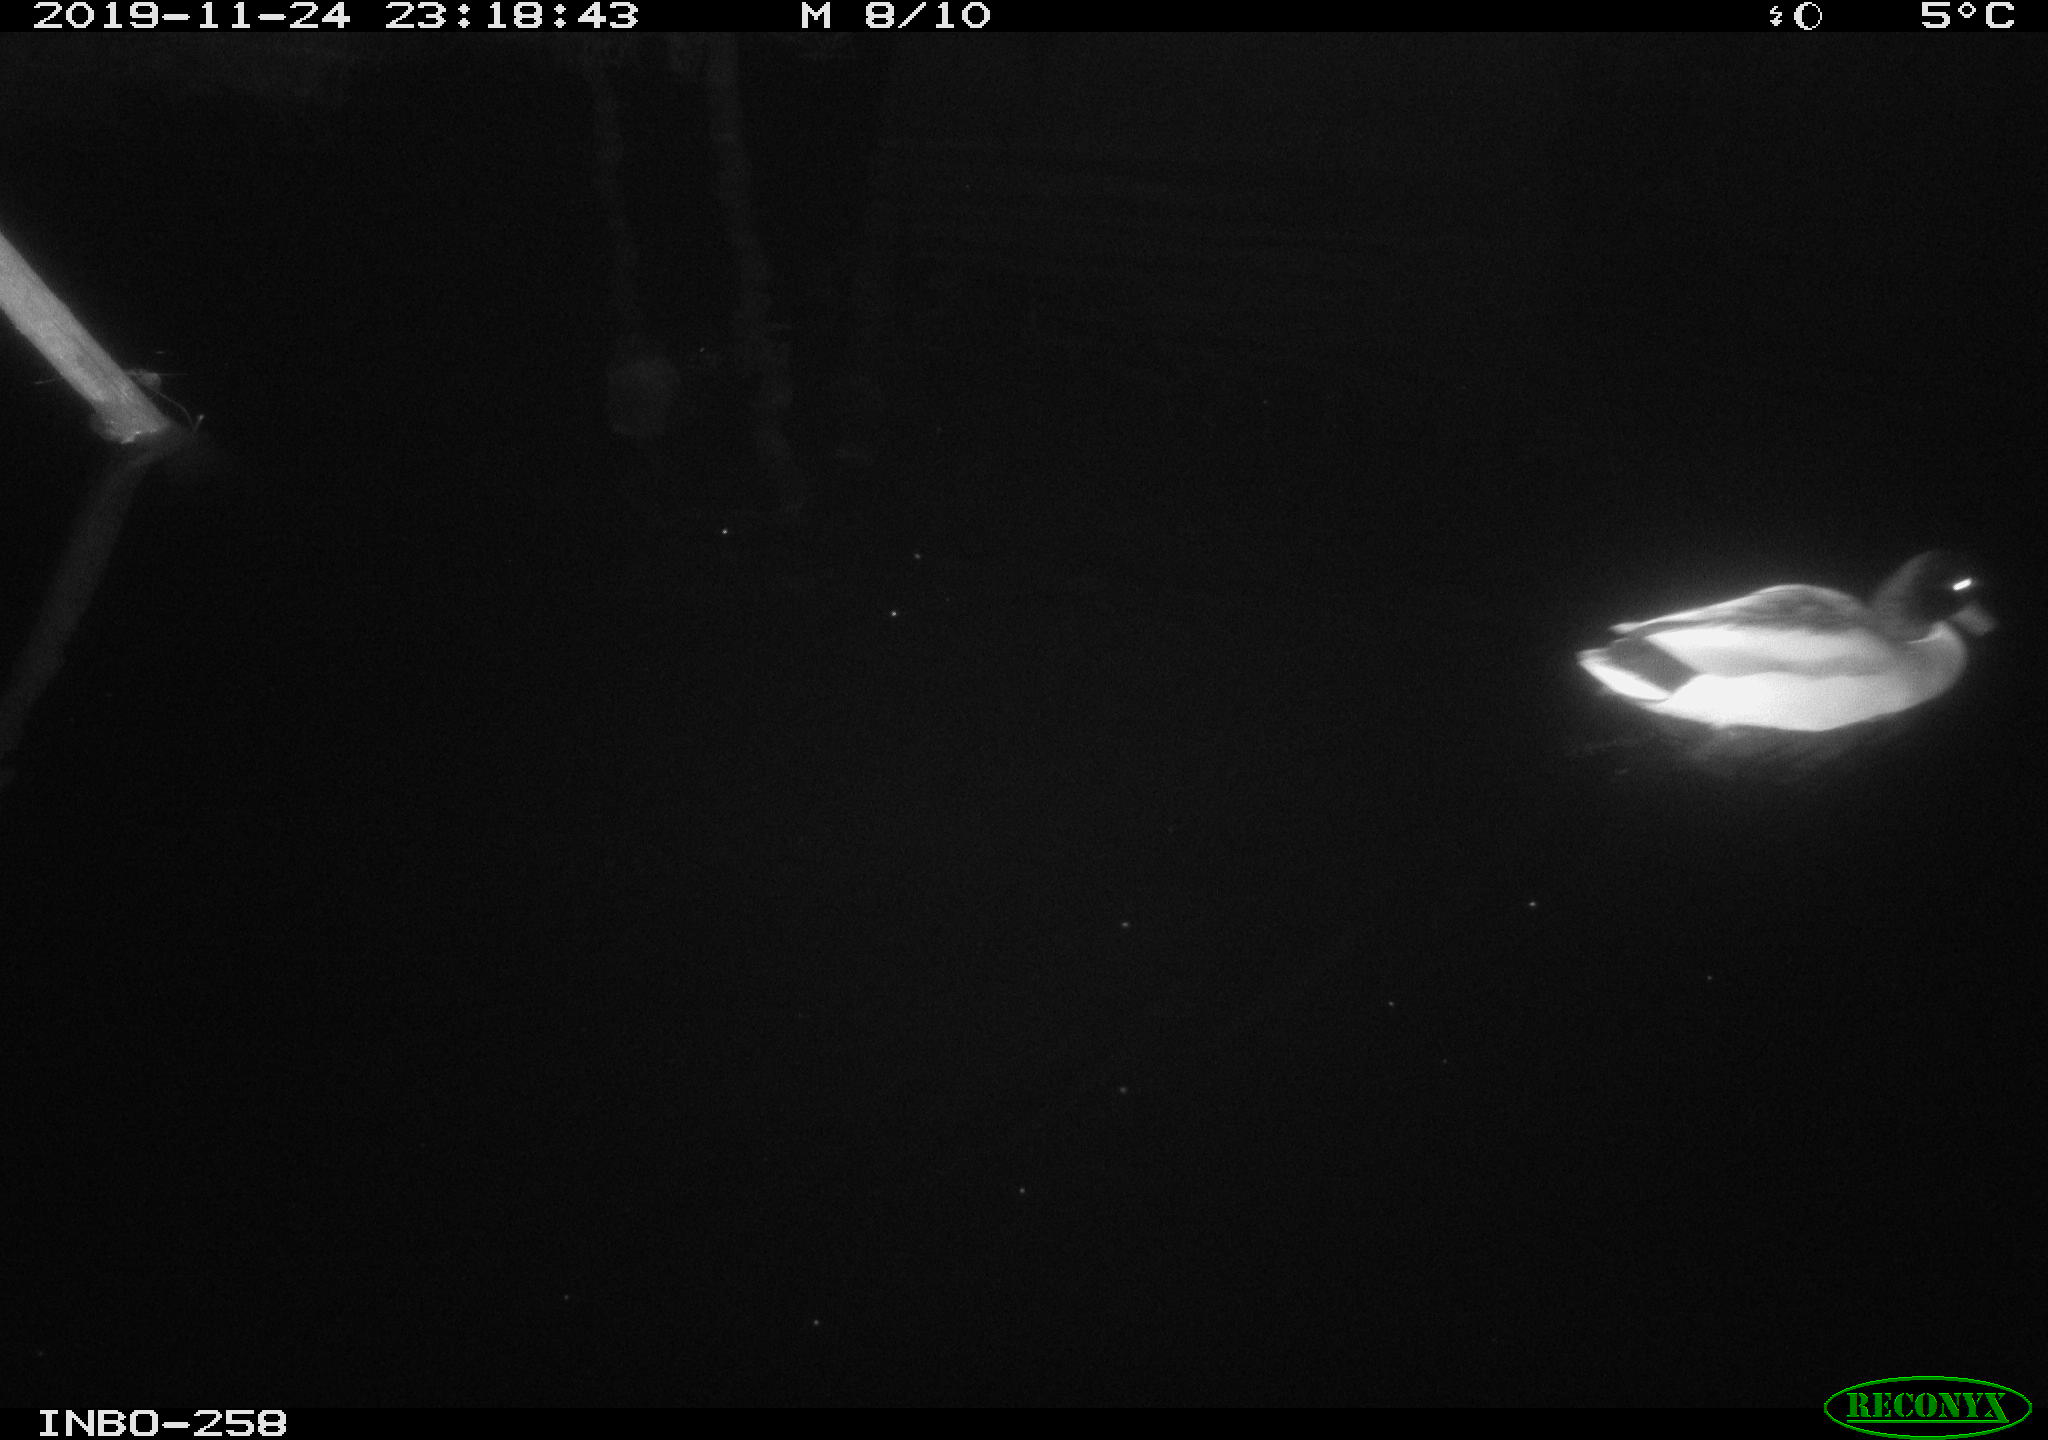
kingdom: Animalia
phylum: Chordata
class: Aves
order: Anseriformes
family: Anatidae
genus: Anas
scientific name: Anas platyrhynchos
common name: Mallard
